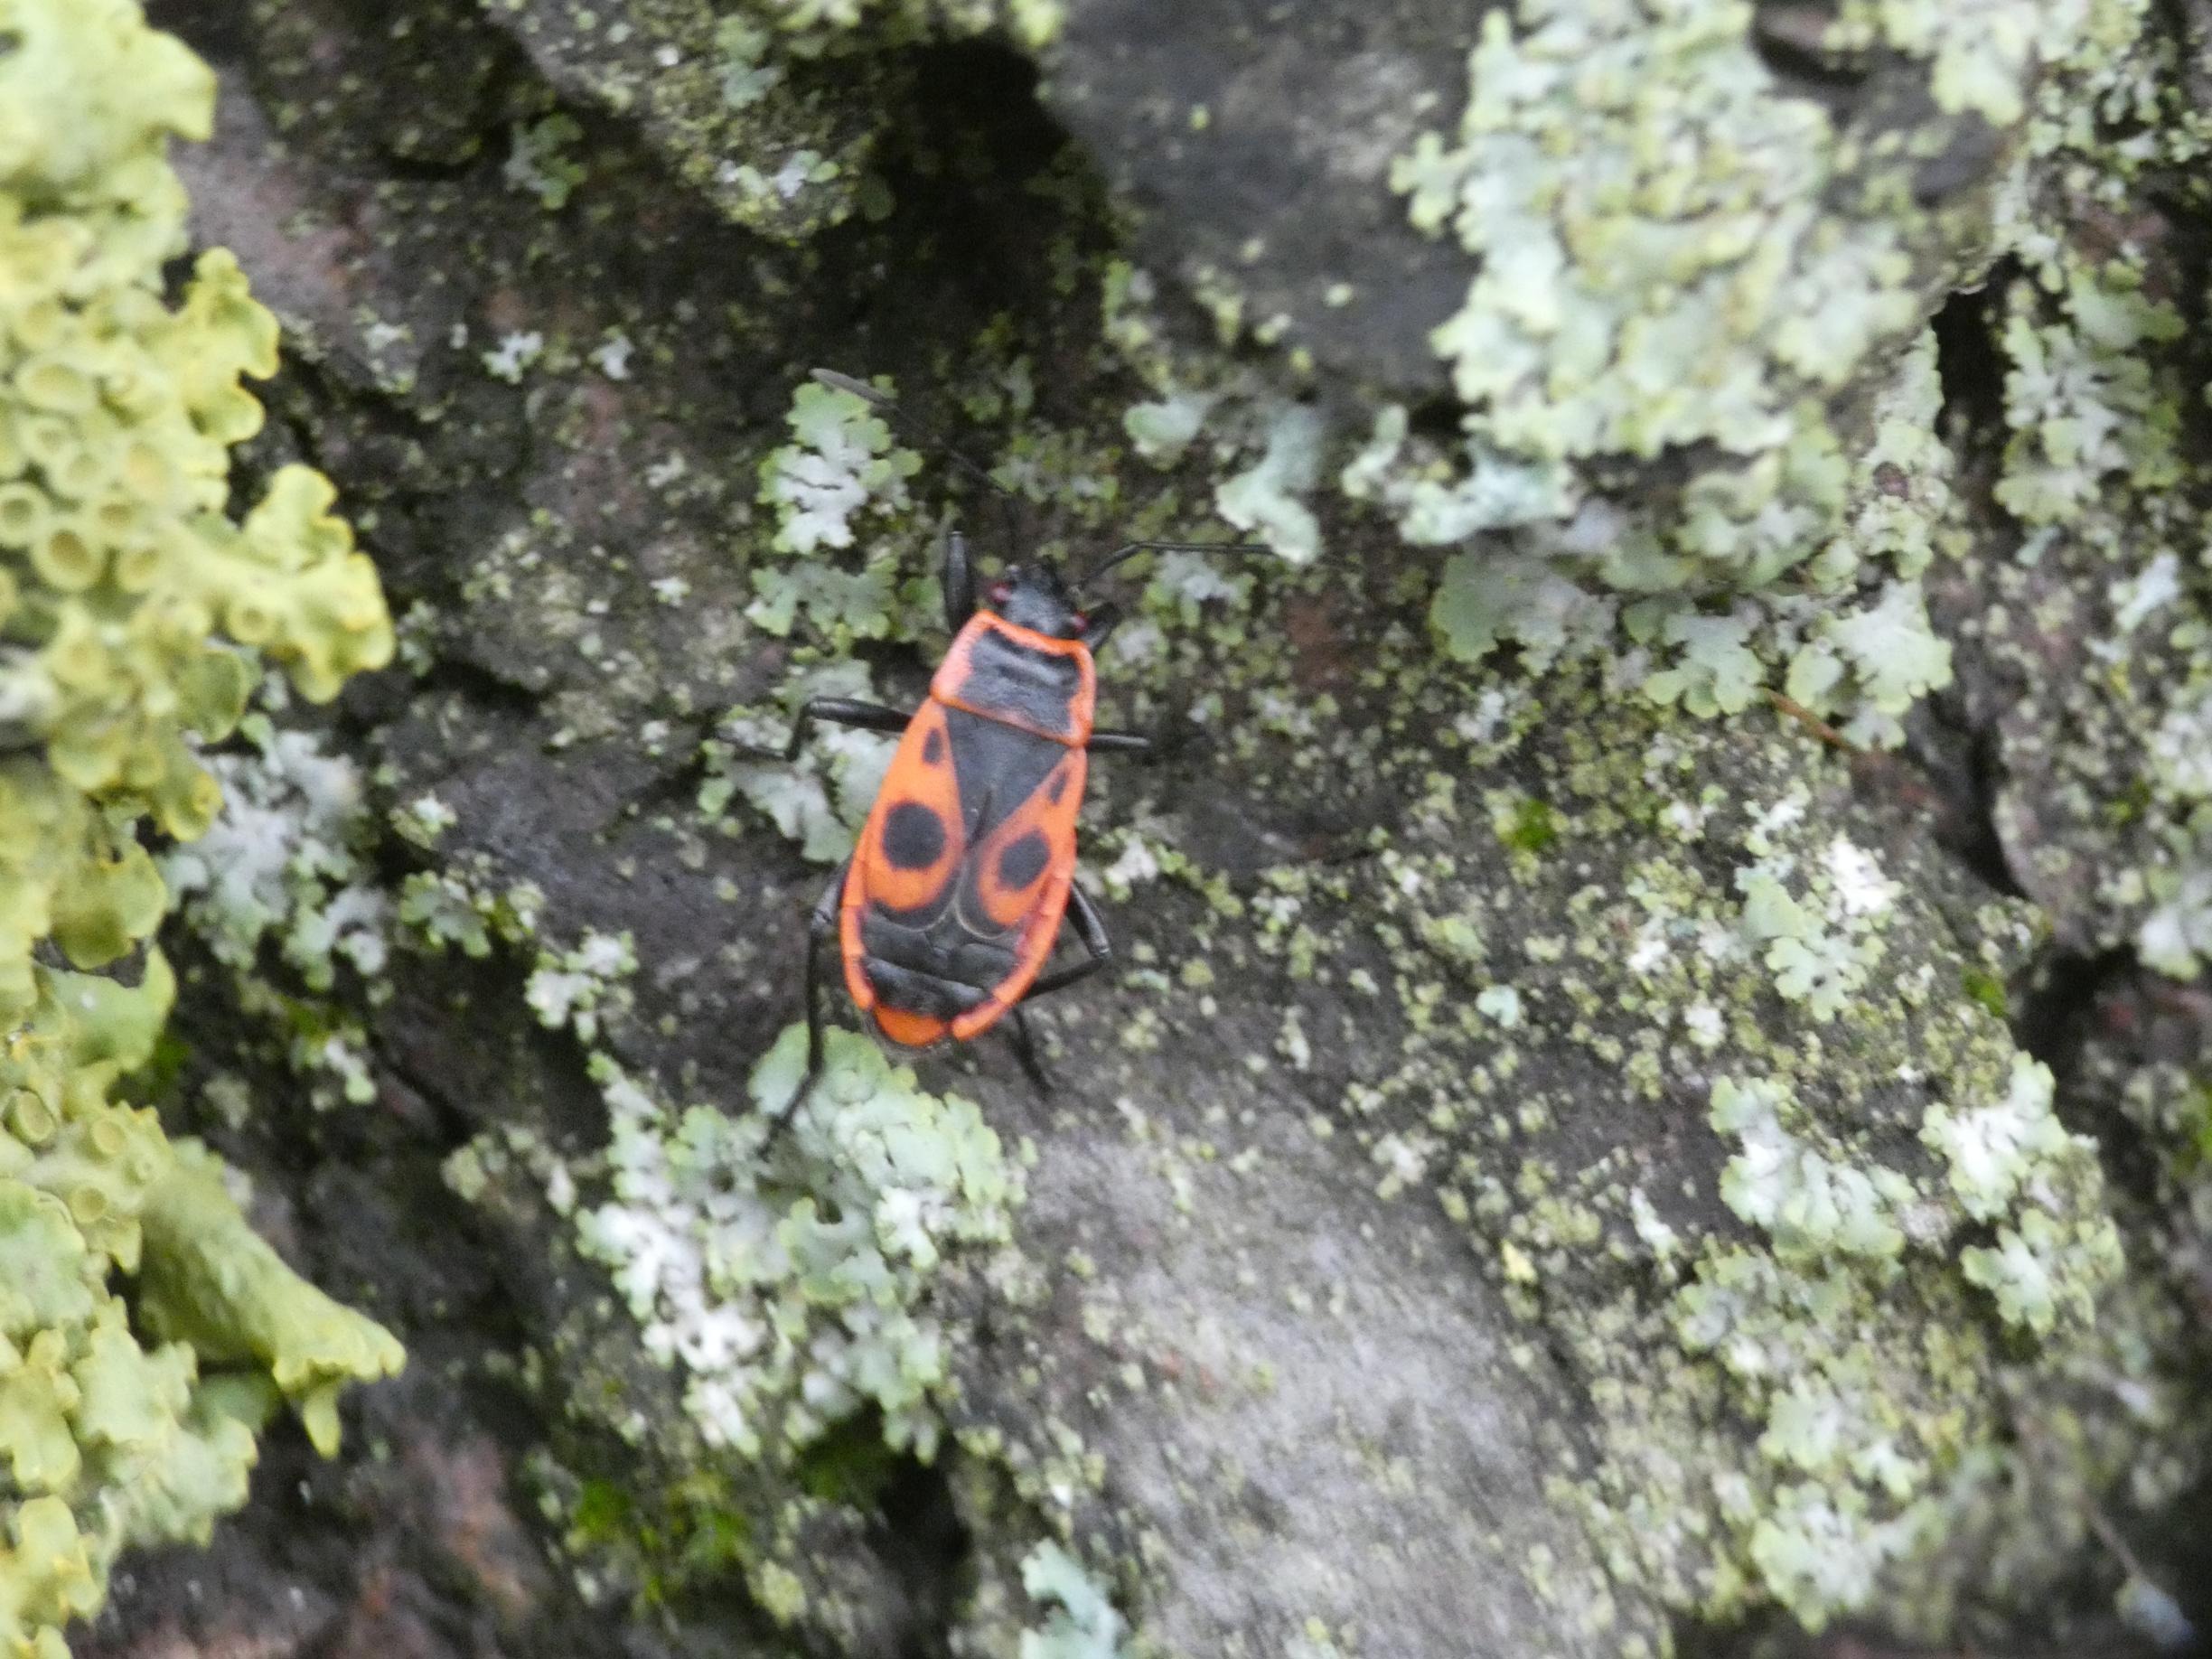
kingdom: Animalia
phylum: Arthropoda
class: Insecta
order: Hemiptera
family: Pyrrhocoridae
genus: Pyrrhocoris
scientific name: Pyrrhocoris apterus
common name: Ildtæge
